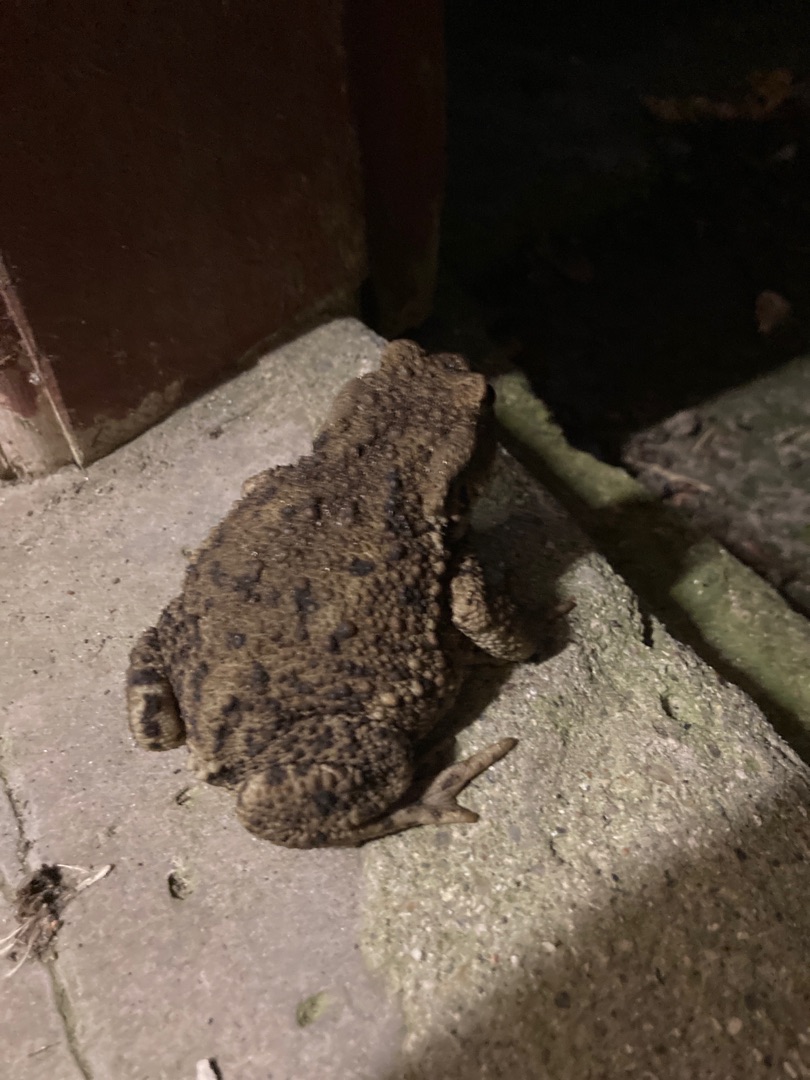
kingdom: Animalia
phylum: Chordata
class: Amphibia
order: Anura
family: Bufonidae
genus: Bufo
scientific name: Bufo bufo
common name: Skrubtudse
